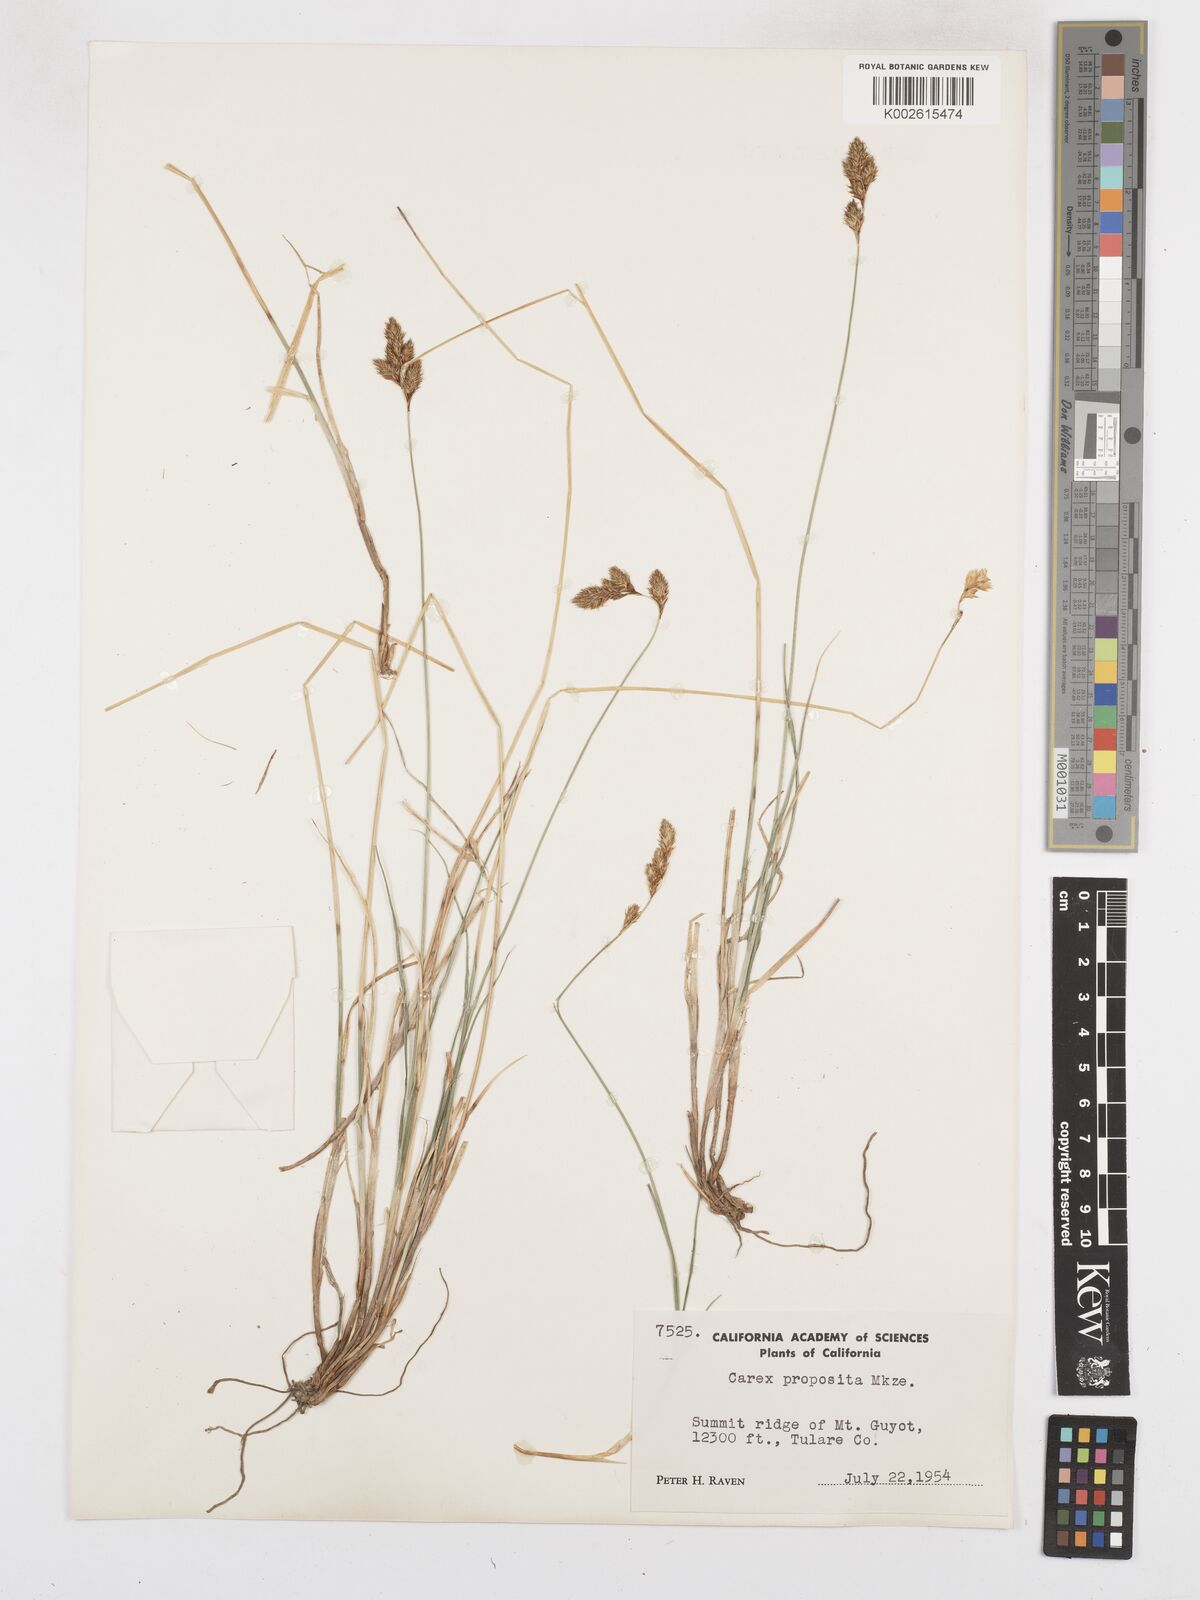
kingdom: Plantae
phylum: Tracheophyta
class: Liliopsida
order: Poales
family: Cyperaceae
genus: Carex
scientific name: Carex proposita
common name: Great smoky mountain sedge
